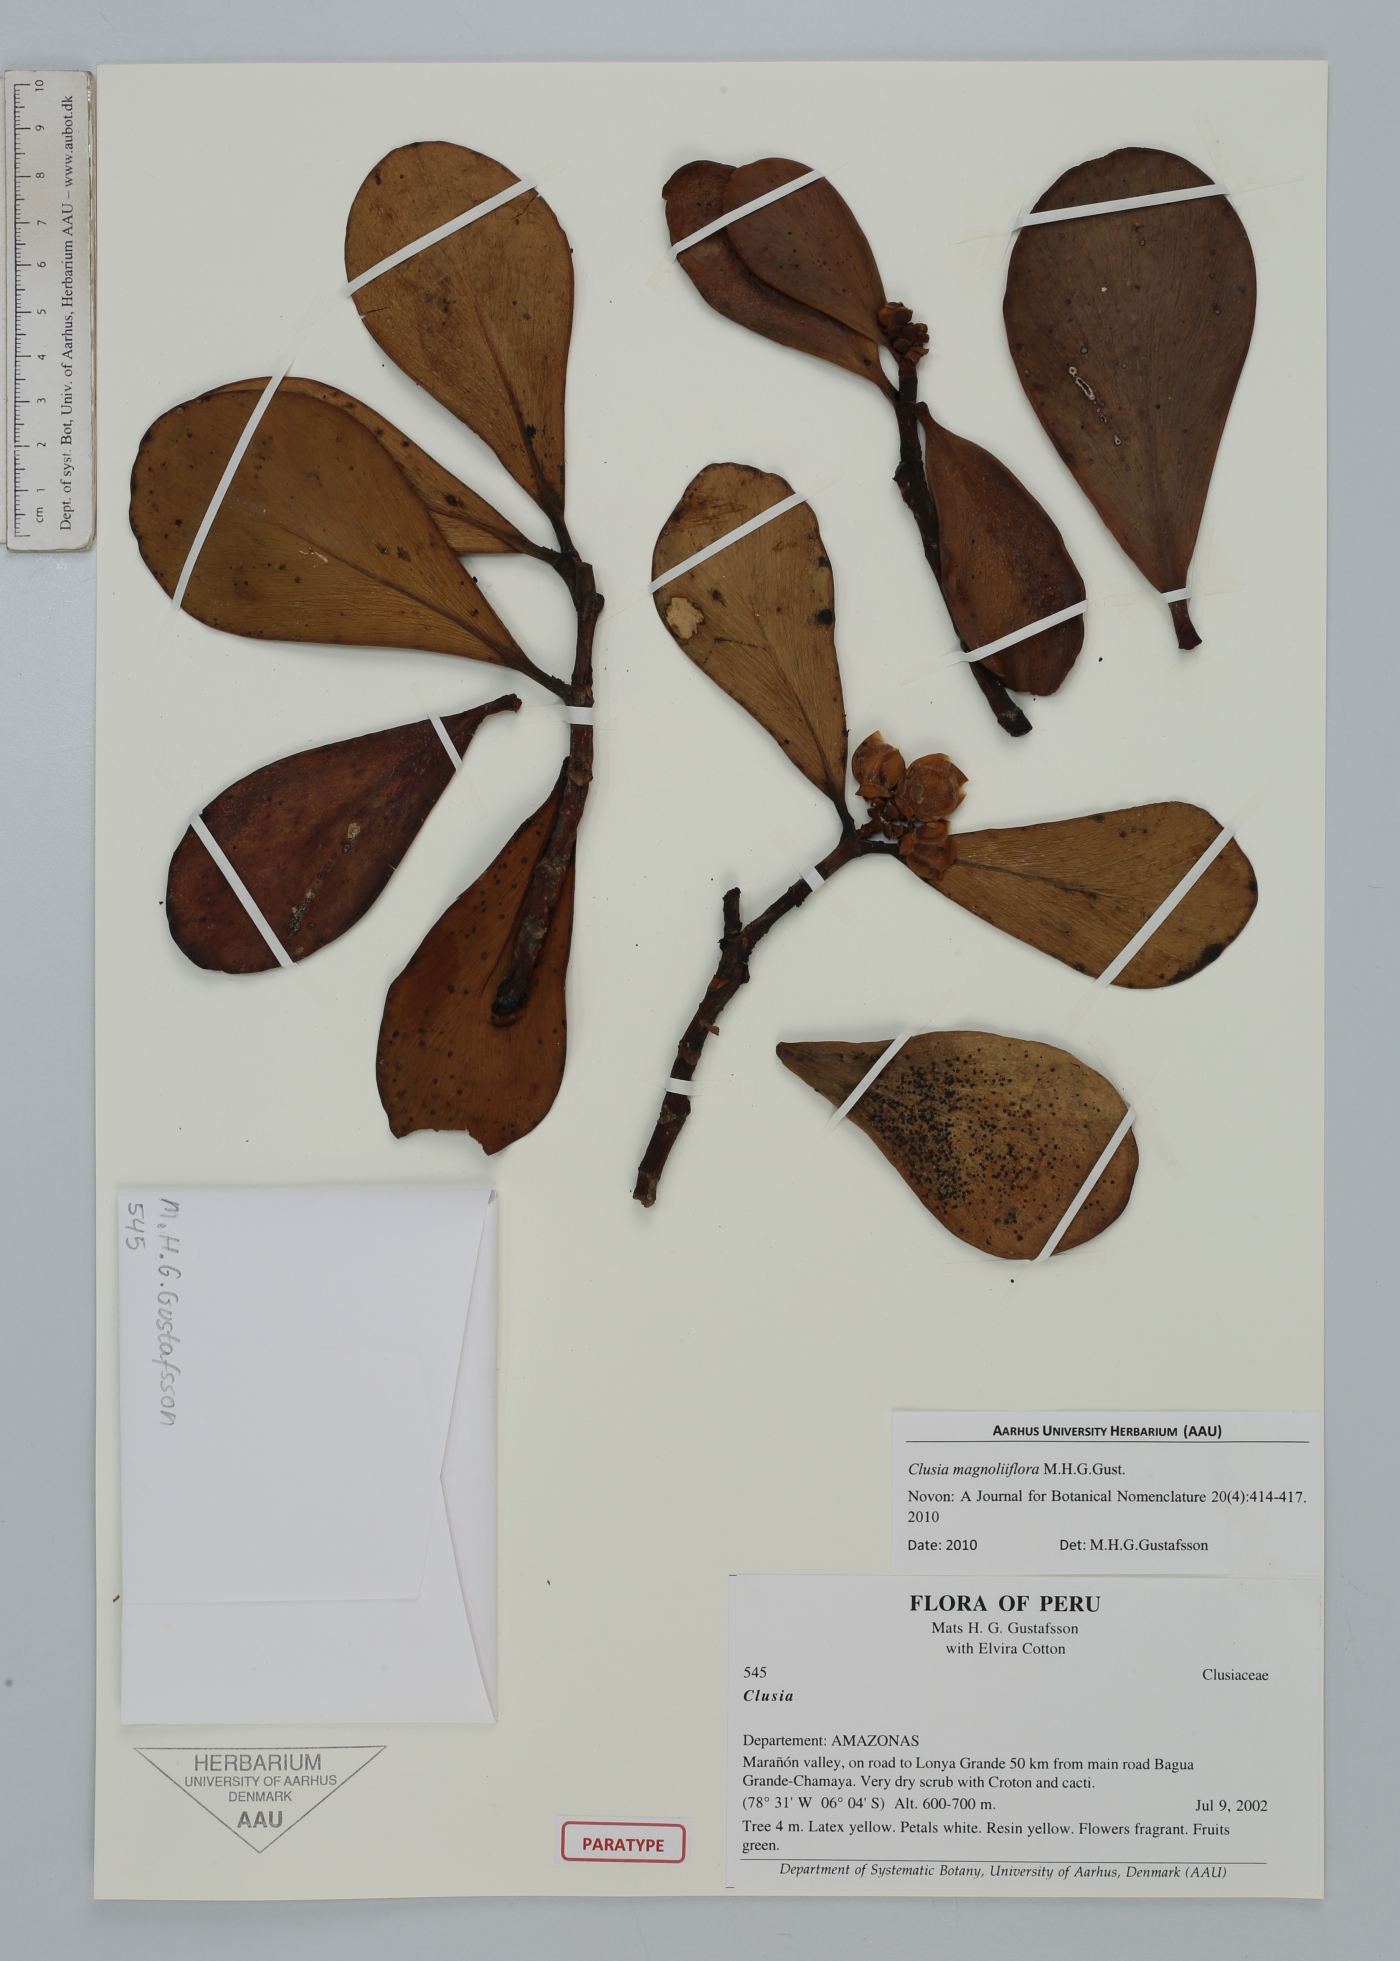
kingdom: Plantae
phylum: Tracheophyta
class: Magnoliopsida
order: Malpighiales
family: Clusiaceae
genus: Clusia
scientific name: Clusia magnoliiflora
